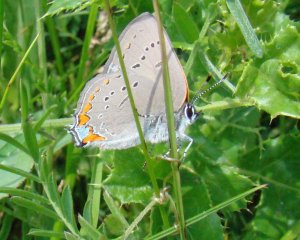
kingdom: Animalia
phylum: Arthropoda
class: Insecta
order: Lepidoptera
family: Lycaenidae
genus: Strymon
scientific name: Strymon acadica
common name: Acadian Hairstreak
